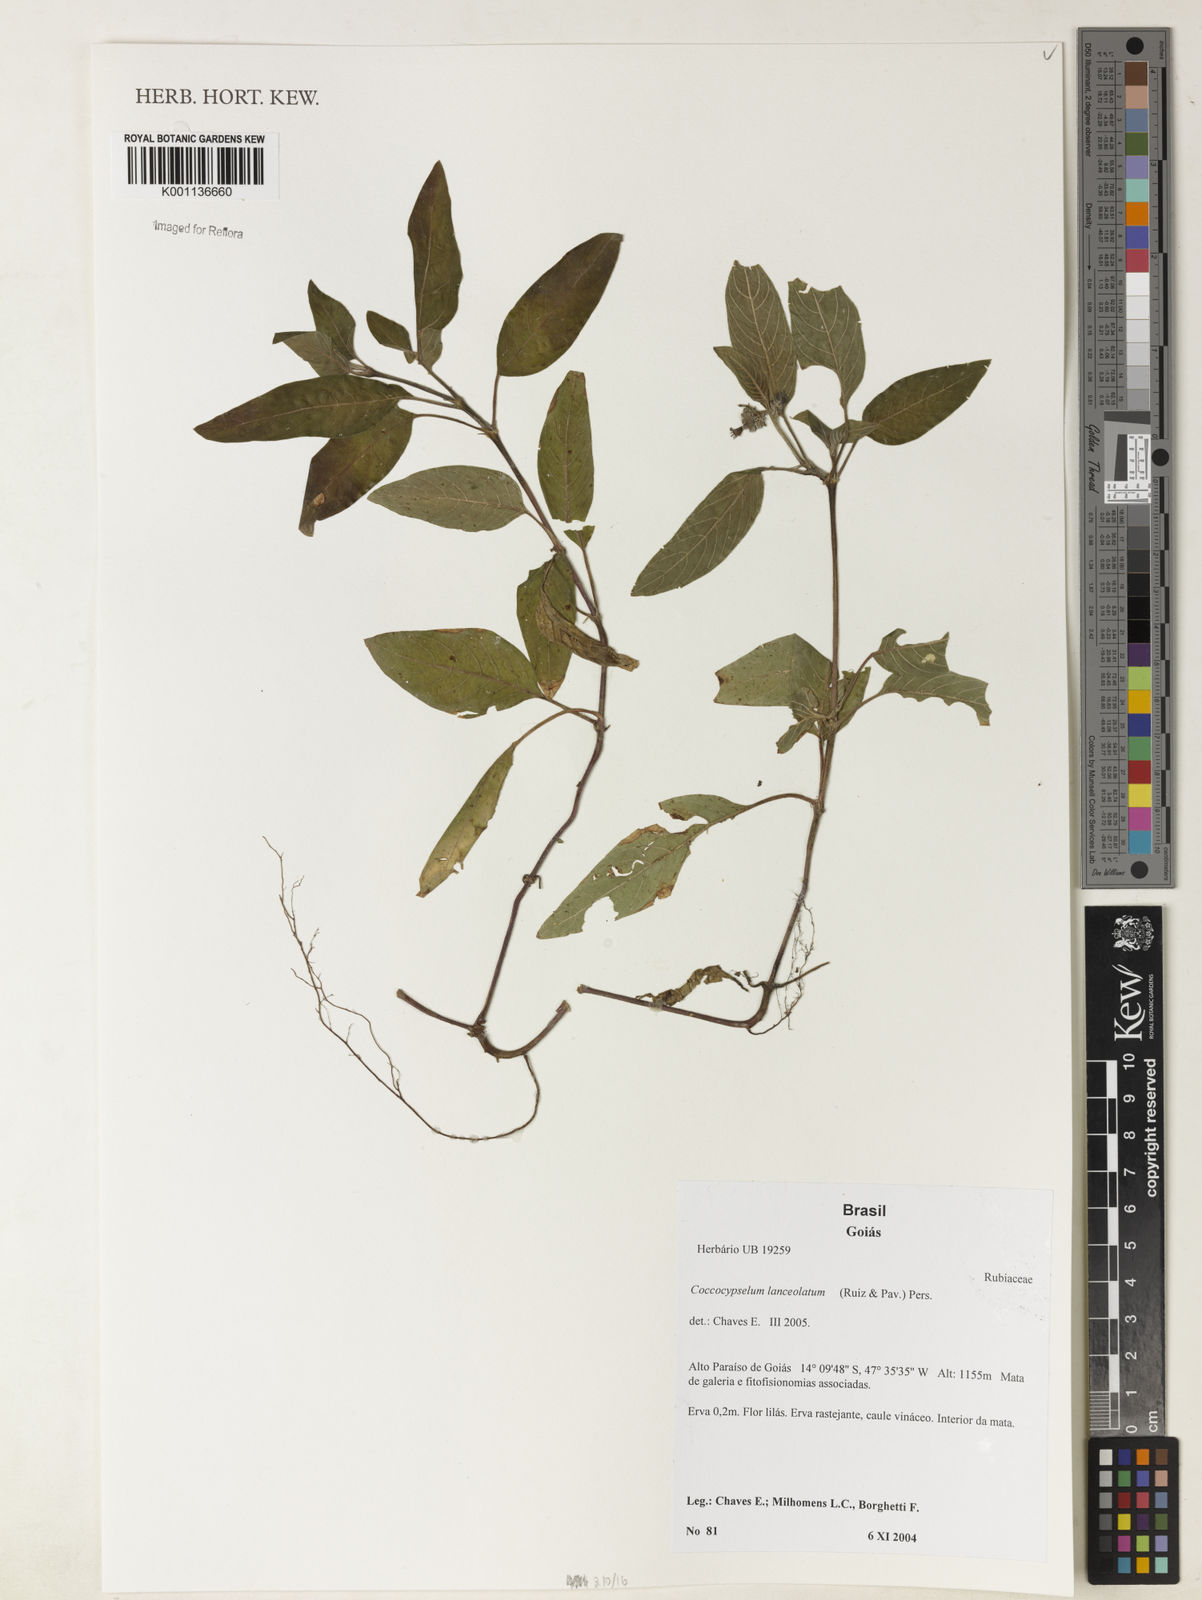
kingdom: Plantae
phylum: Tracheophyta
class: Magnoliopsida
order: Gentianales
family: Rubiaceae
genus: Coccocypselum
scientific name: Coccocypselum lanceolatum
